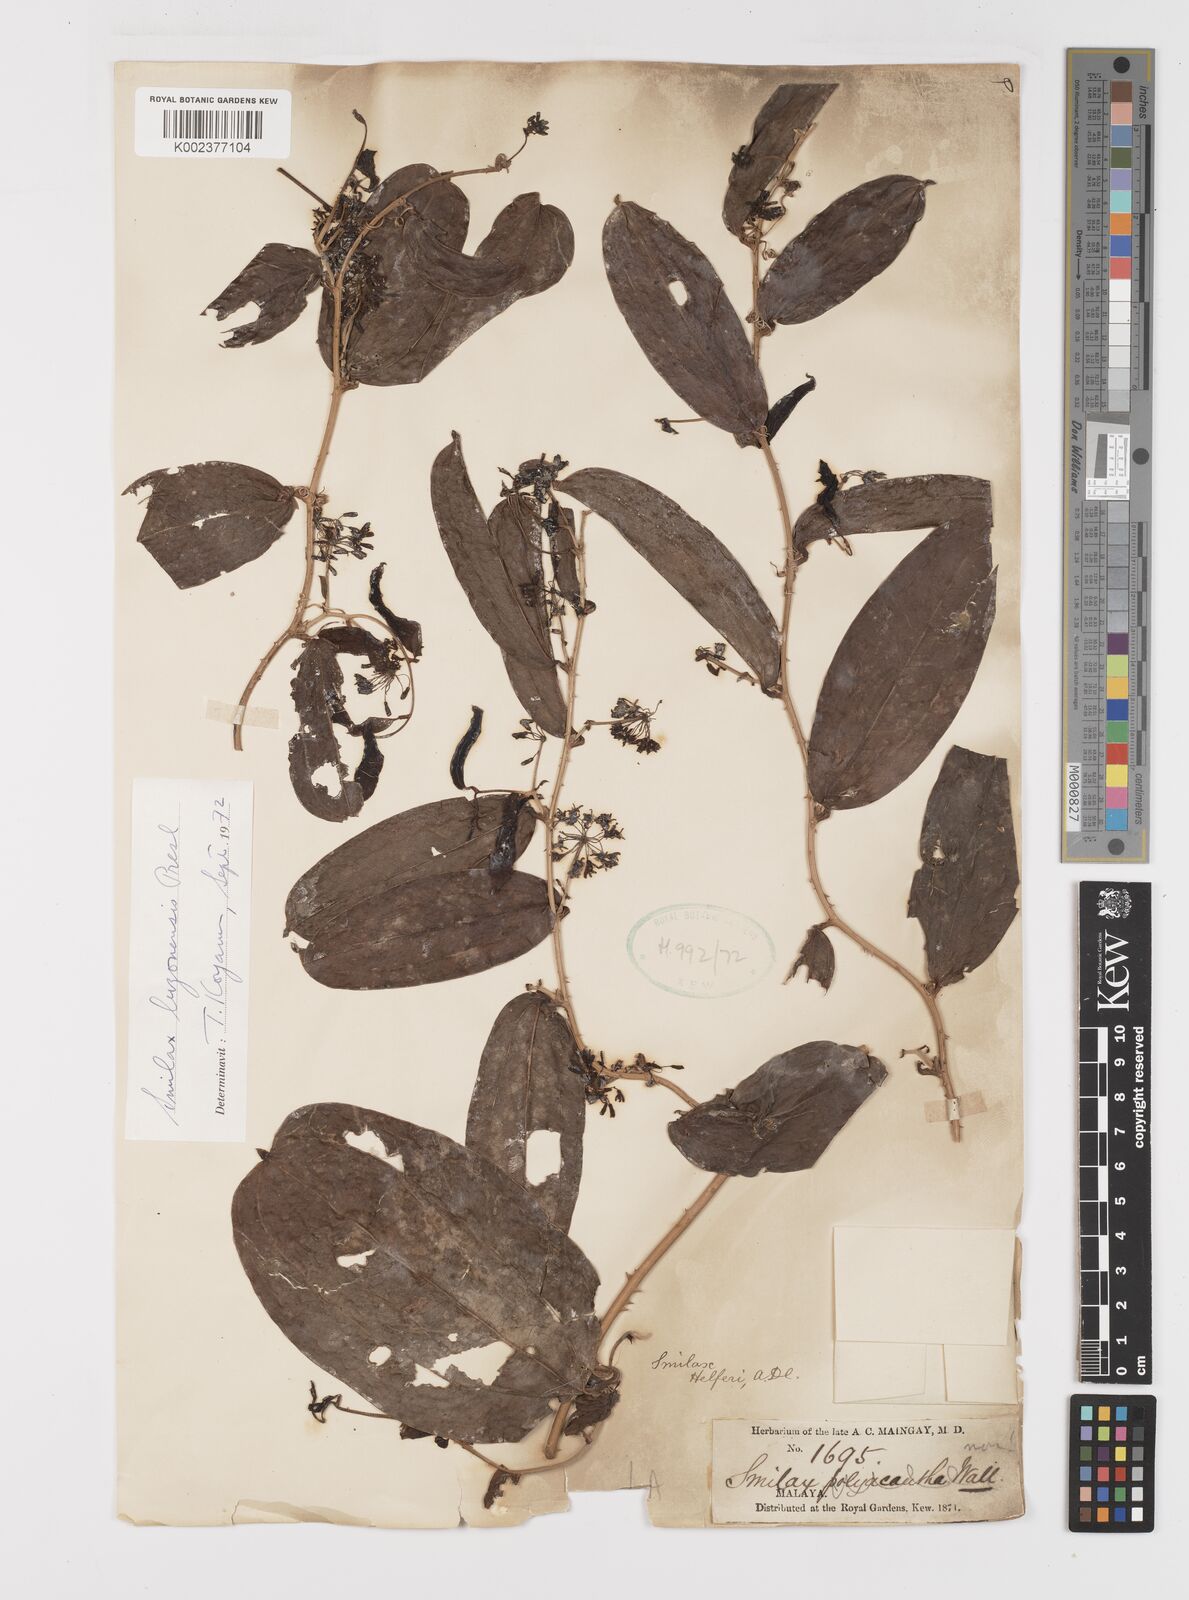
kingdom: Plantae
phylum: Tracheophyta
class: Liliopsida
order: Liliales
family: Smilacaceae
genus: Smilax
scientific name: Smilax luzonensis
